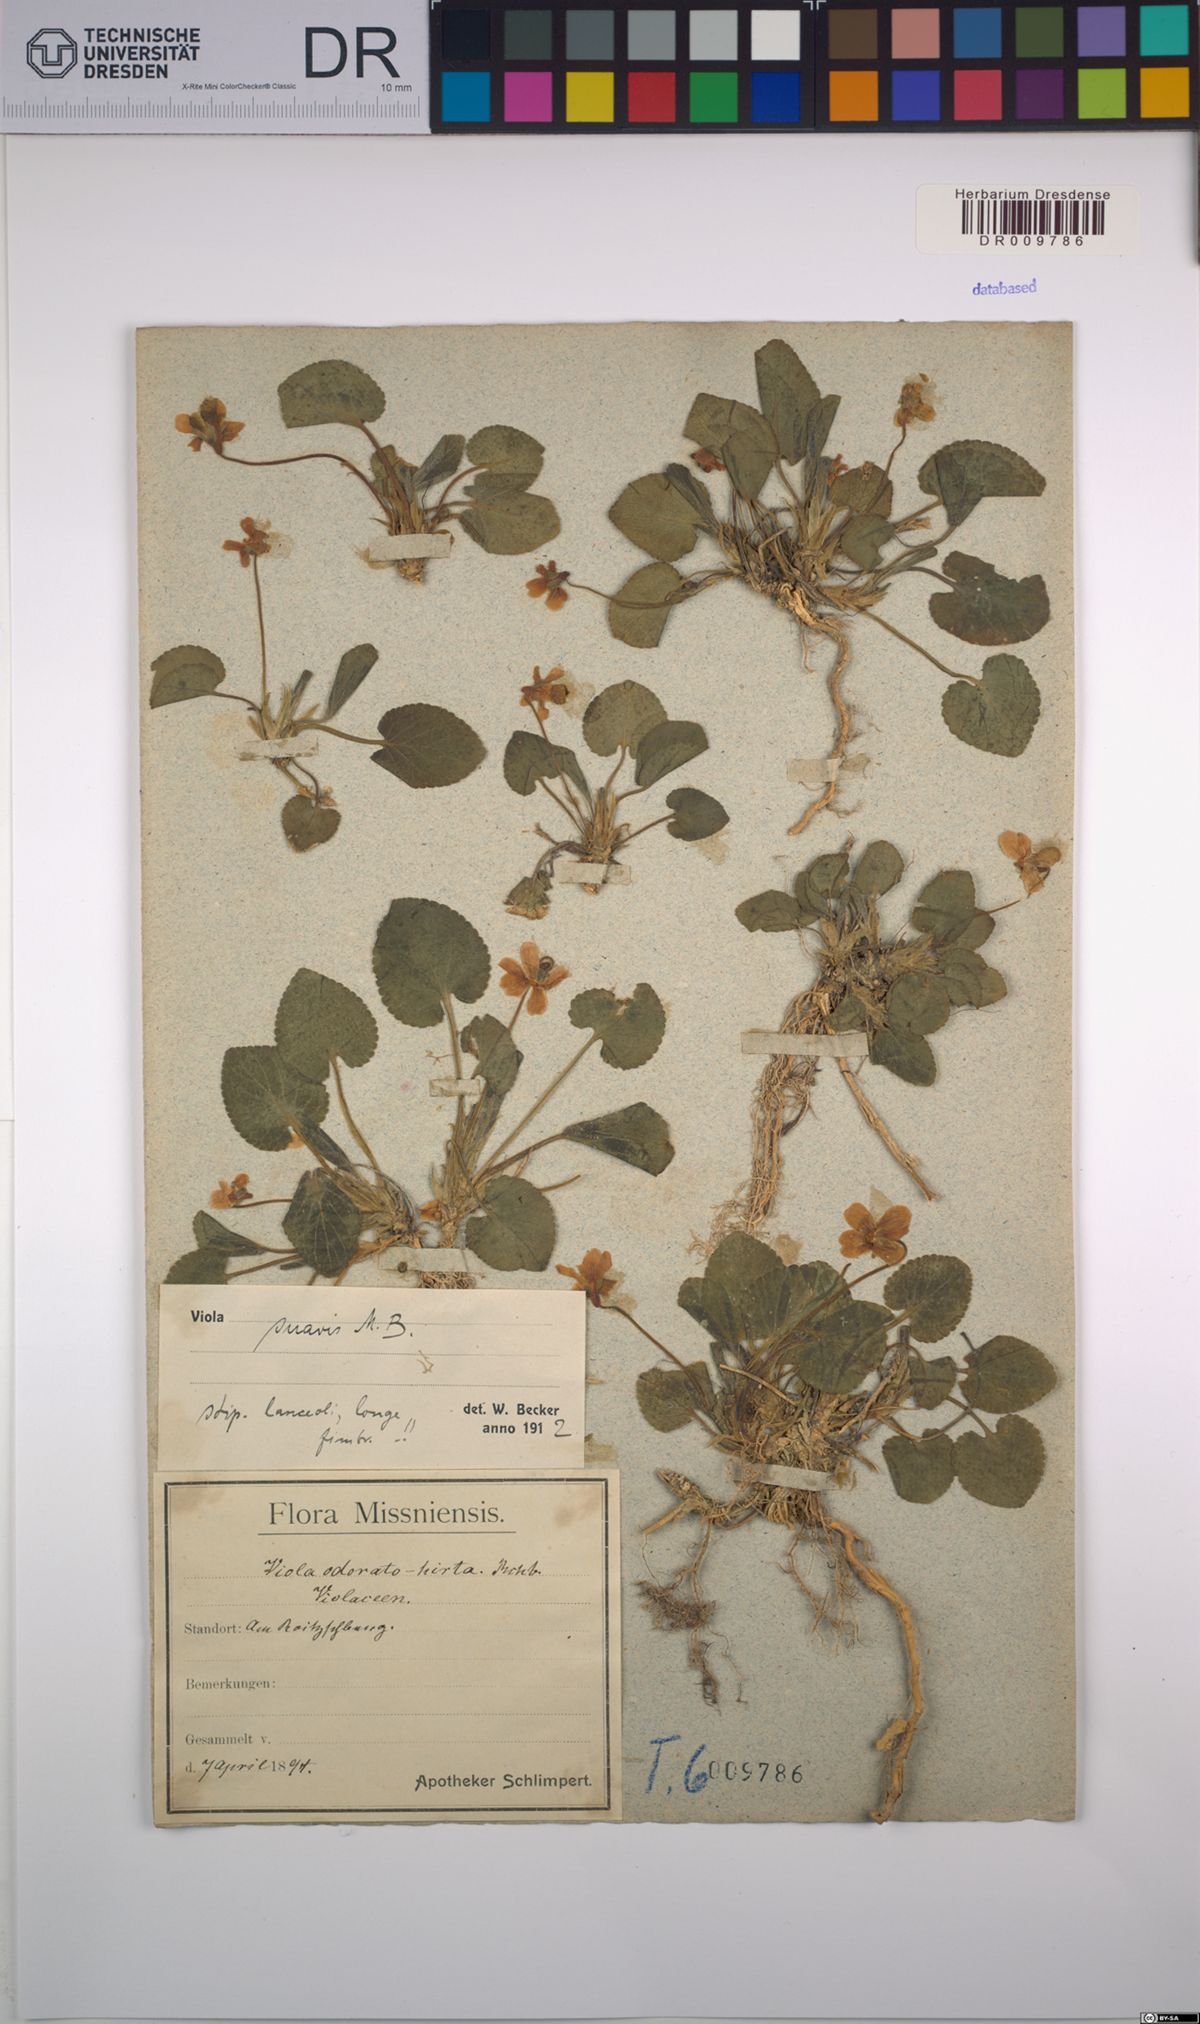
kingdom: Plantae
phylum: Tracheophyta
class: Magnoliopsida
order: Malpighiales
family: Violaceae
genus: Viola
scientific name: Viola suavis
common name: Russian violet
